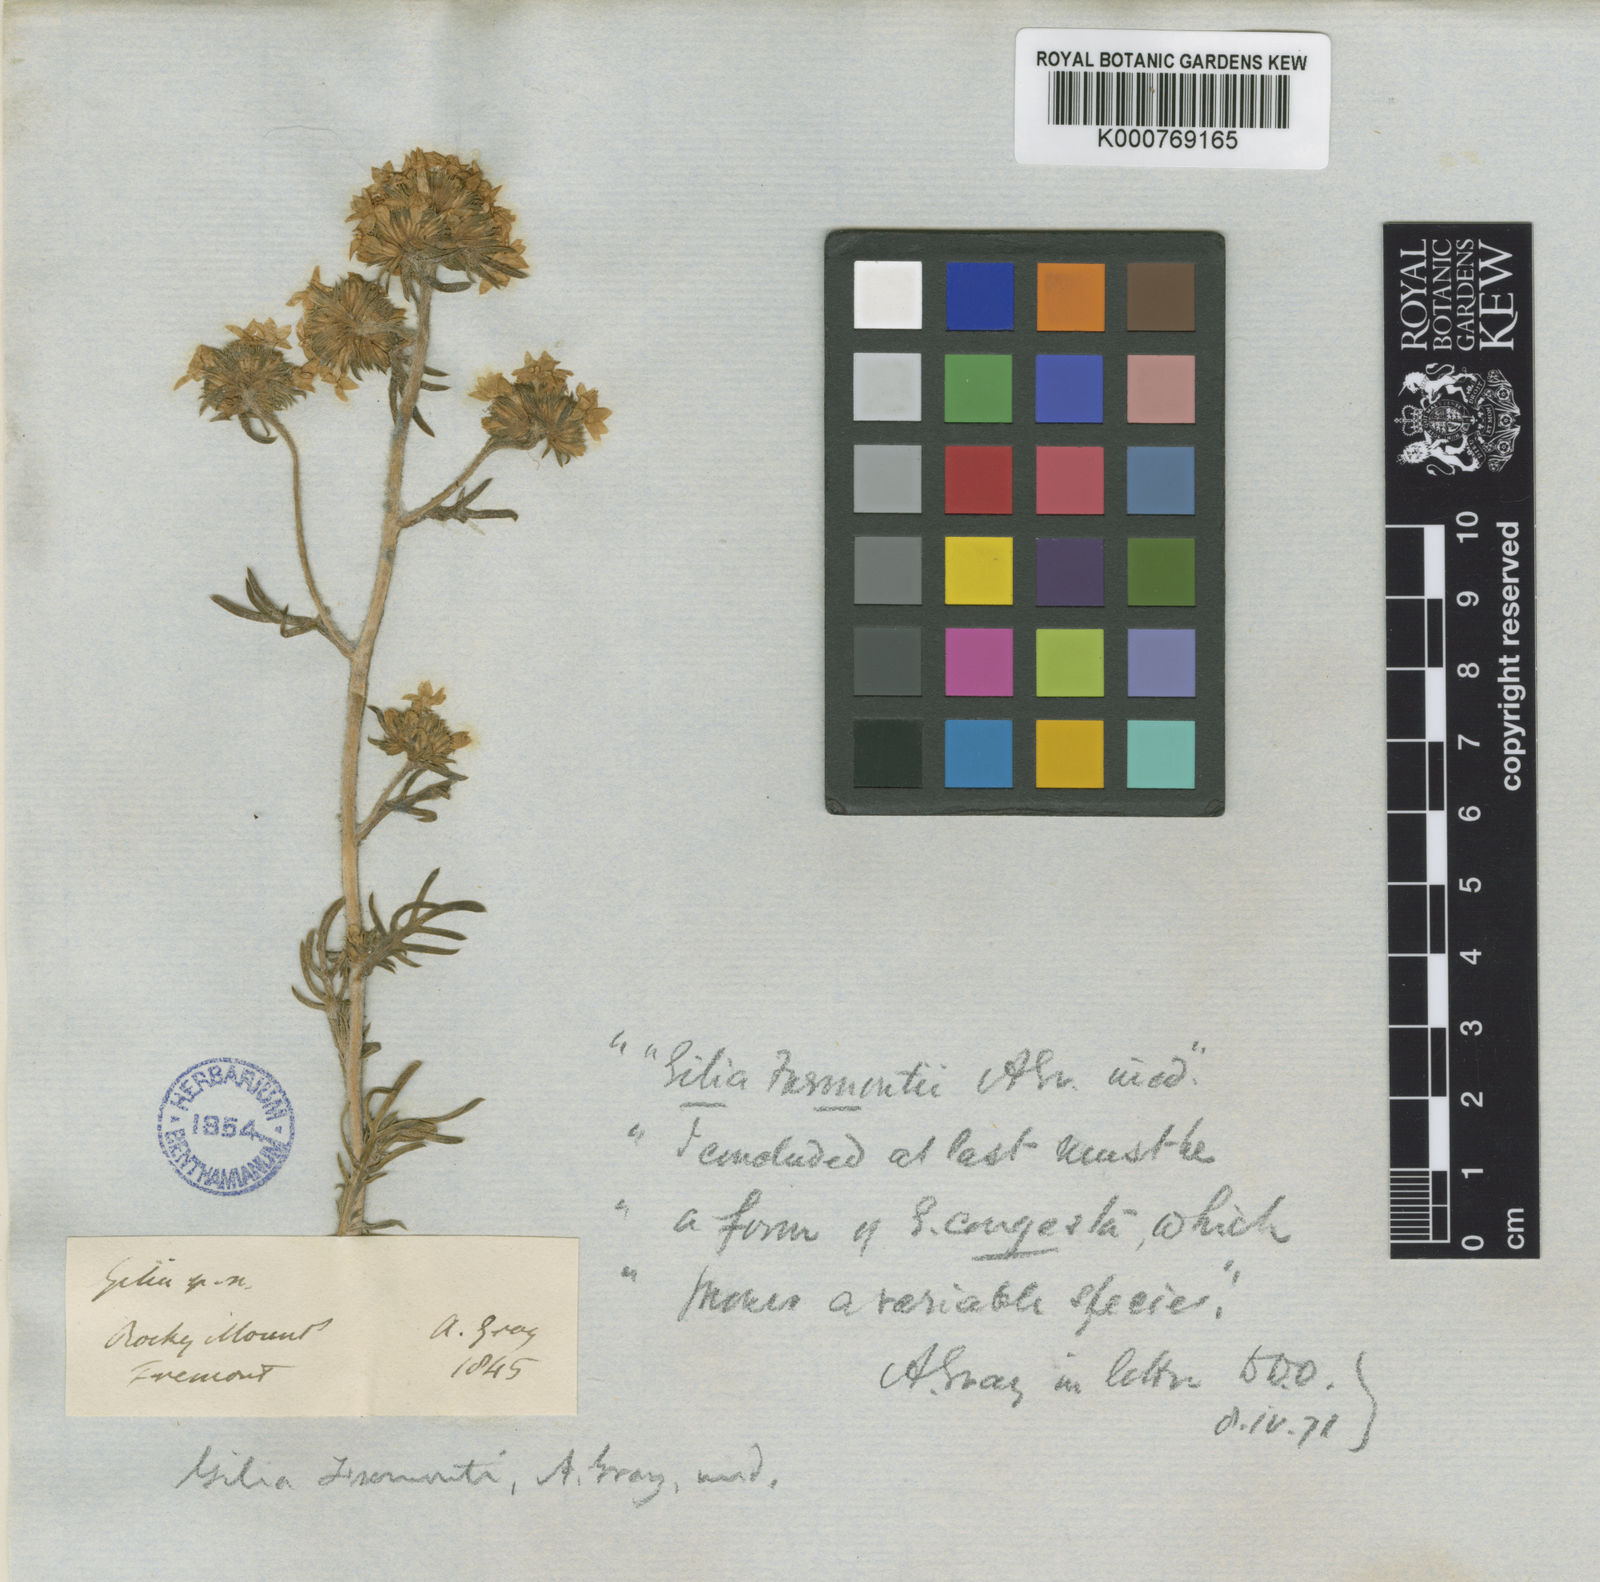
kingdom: Plantae
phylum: Tracheophyta
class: Magnoliopsida
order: Ericales
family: Polemoniaceae
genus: Ipomopsis
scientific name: Ipomopsis congesta
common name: Ball-head gilia
